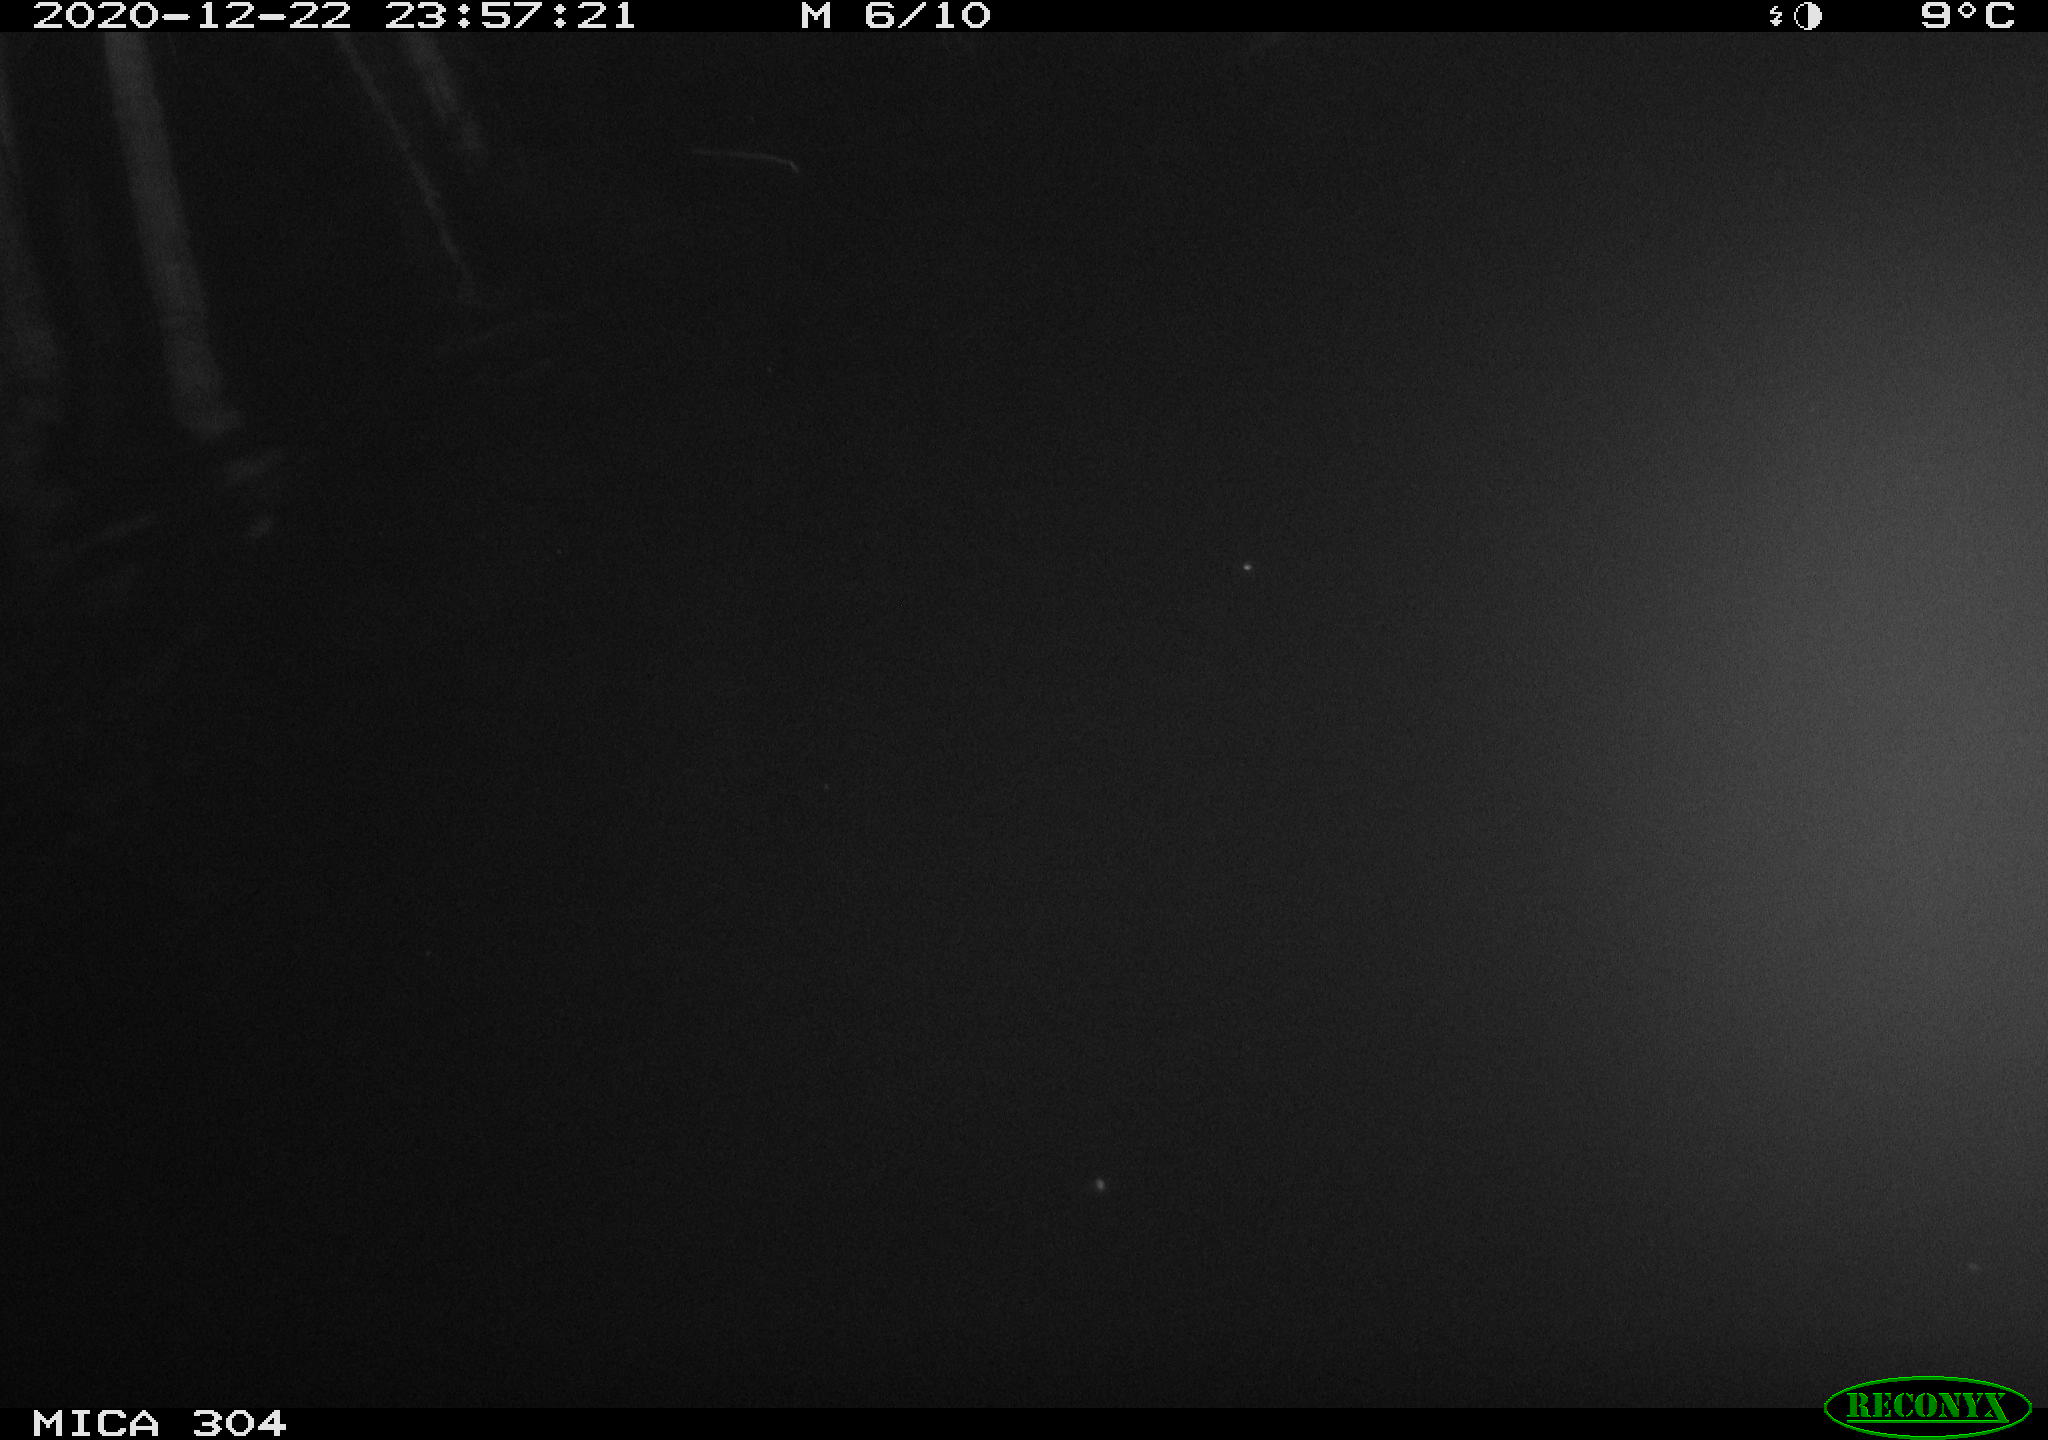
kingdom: Animalia
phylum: Chordata
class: Mammalia
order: Rodentia
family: Muridae
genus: Rattus
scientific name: Rattus norvegicus
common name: Brown rat
